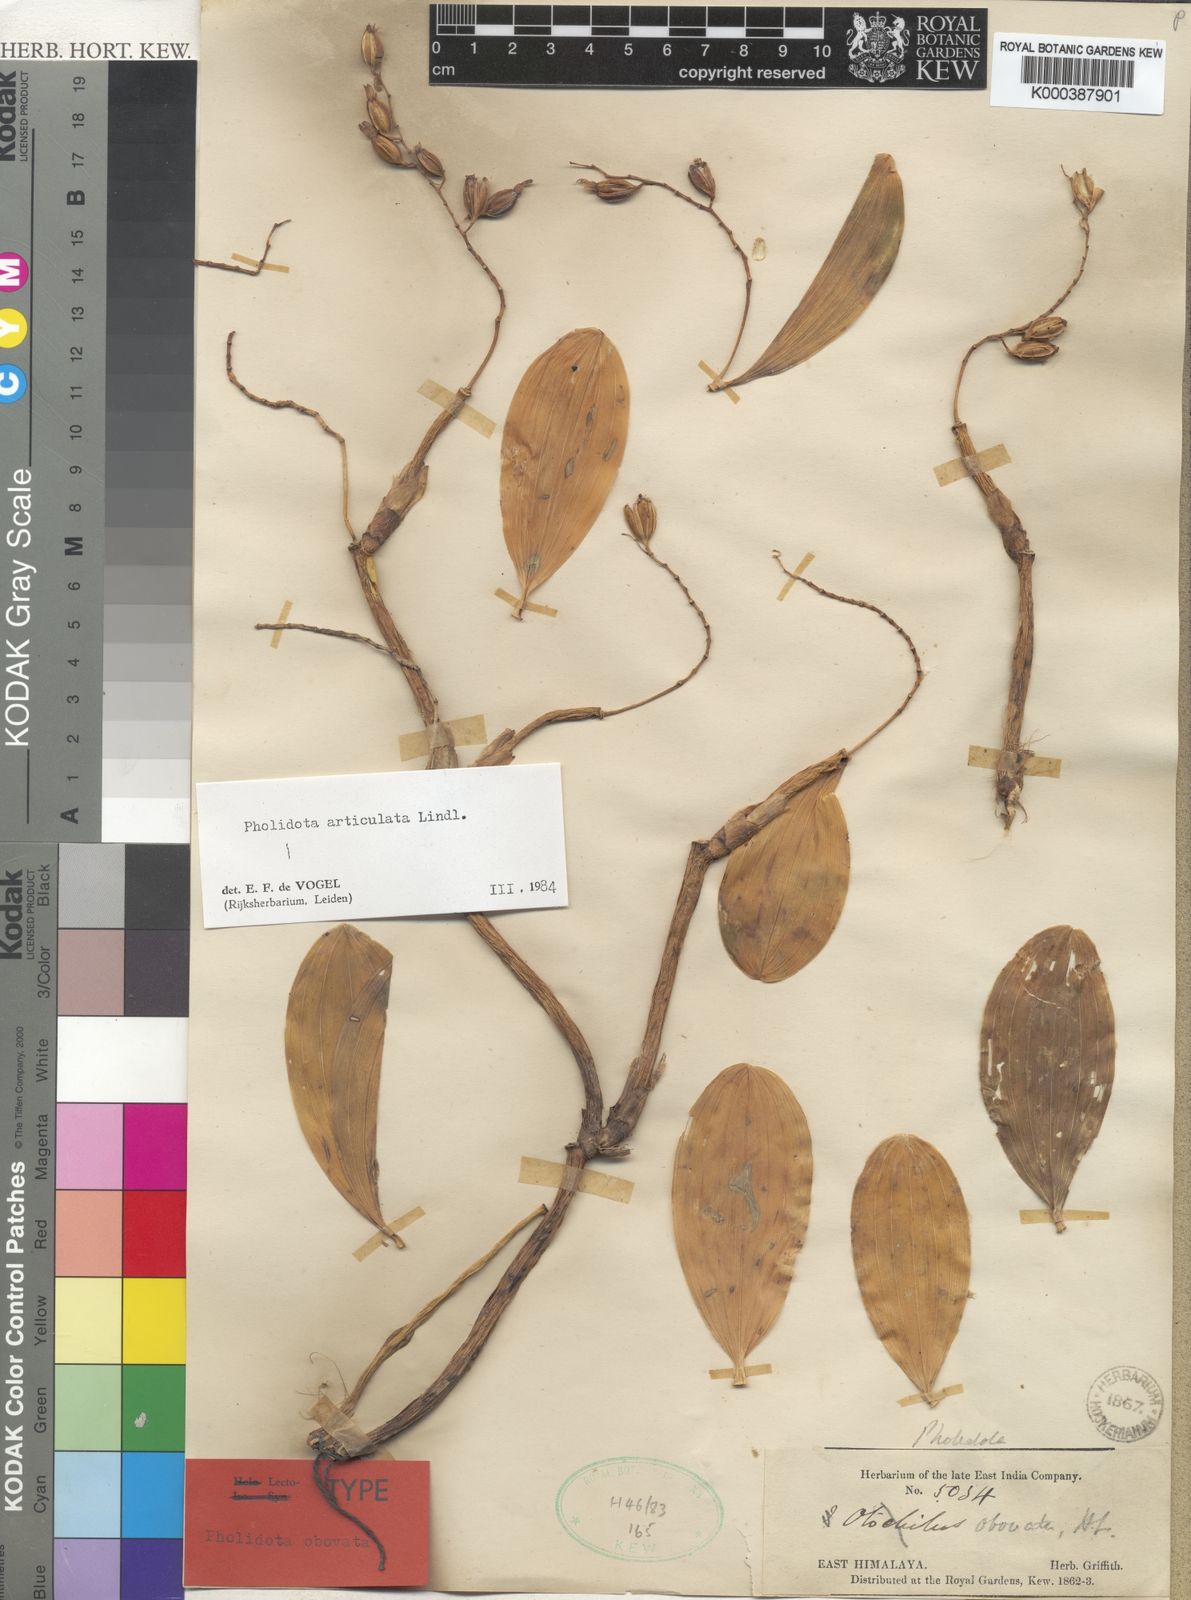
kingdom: Plantae
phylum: Tracheophyta
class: Liliopsida
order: Asparagales
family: Orchidaceae
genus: Coelogyne
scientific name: Coelogyne articulata
